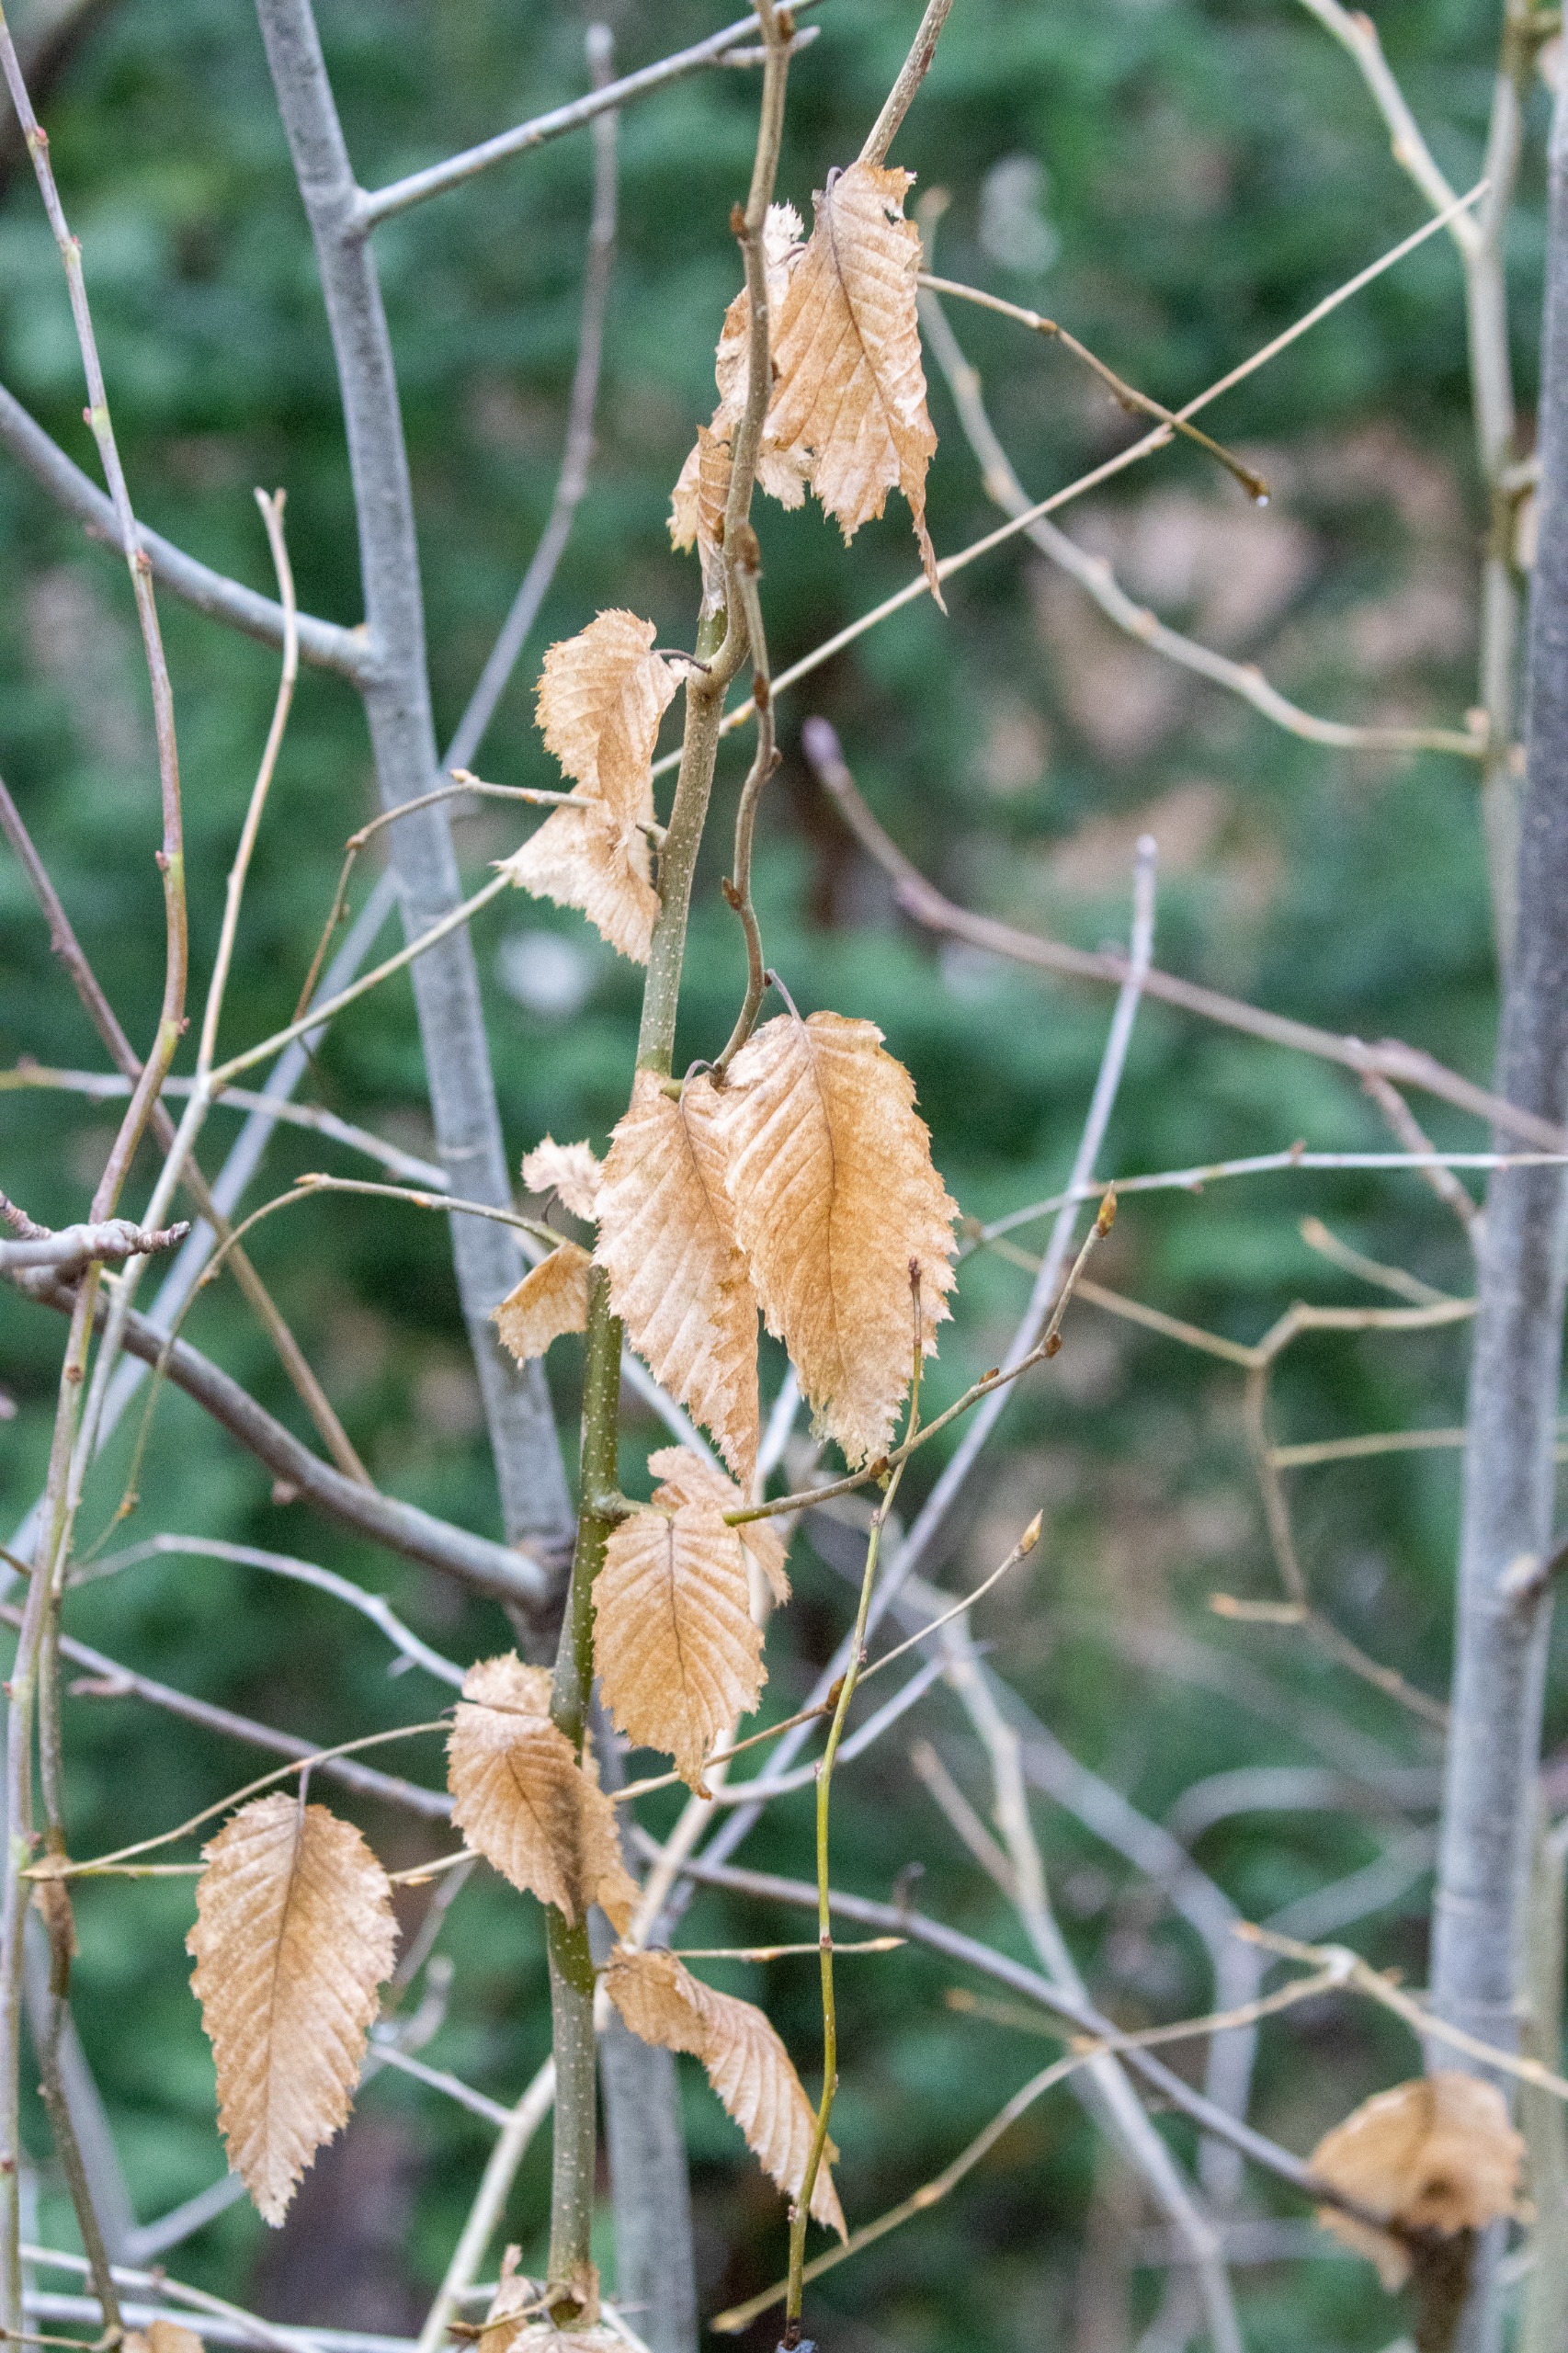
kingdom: Plantae
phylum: Tracheophyta
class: Magnoliopsida
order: Fagales
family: Betulaceae
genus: Carpinus
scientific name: Carpinus betulus
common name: Avnbøg
